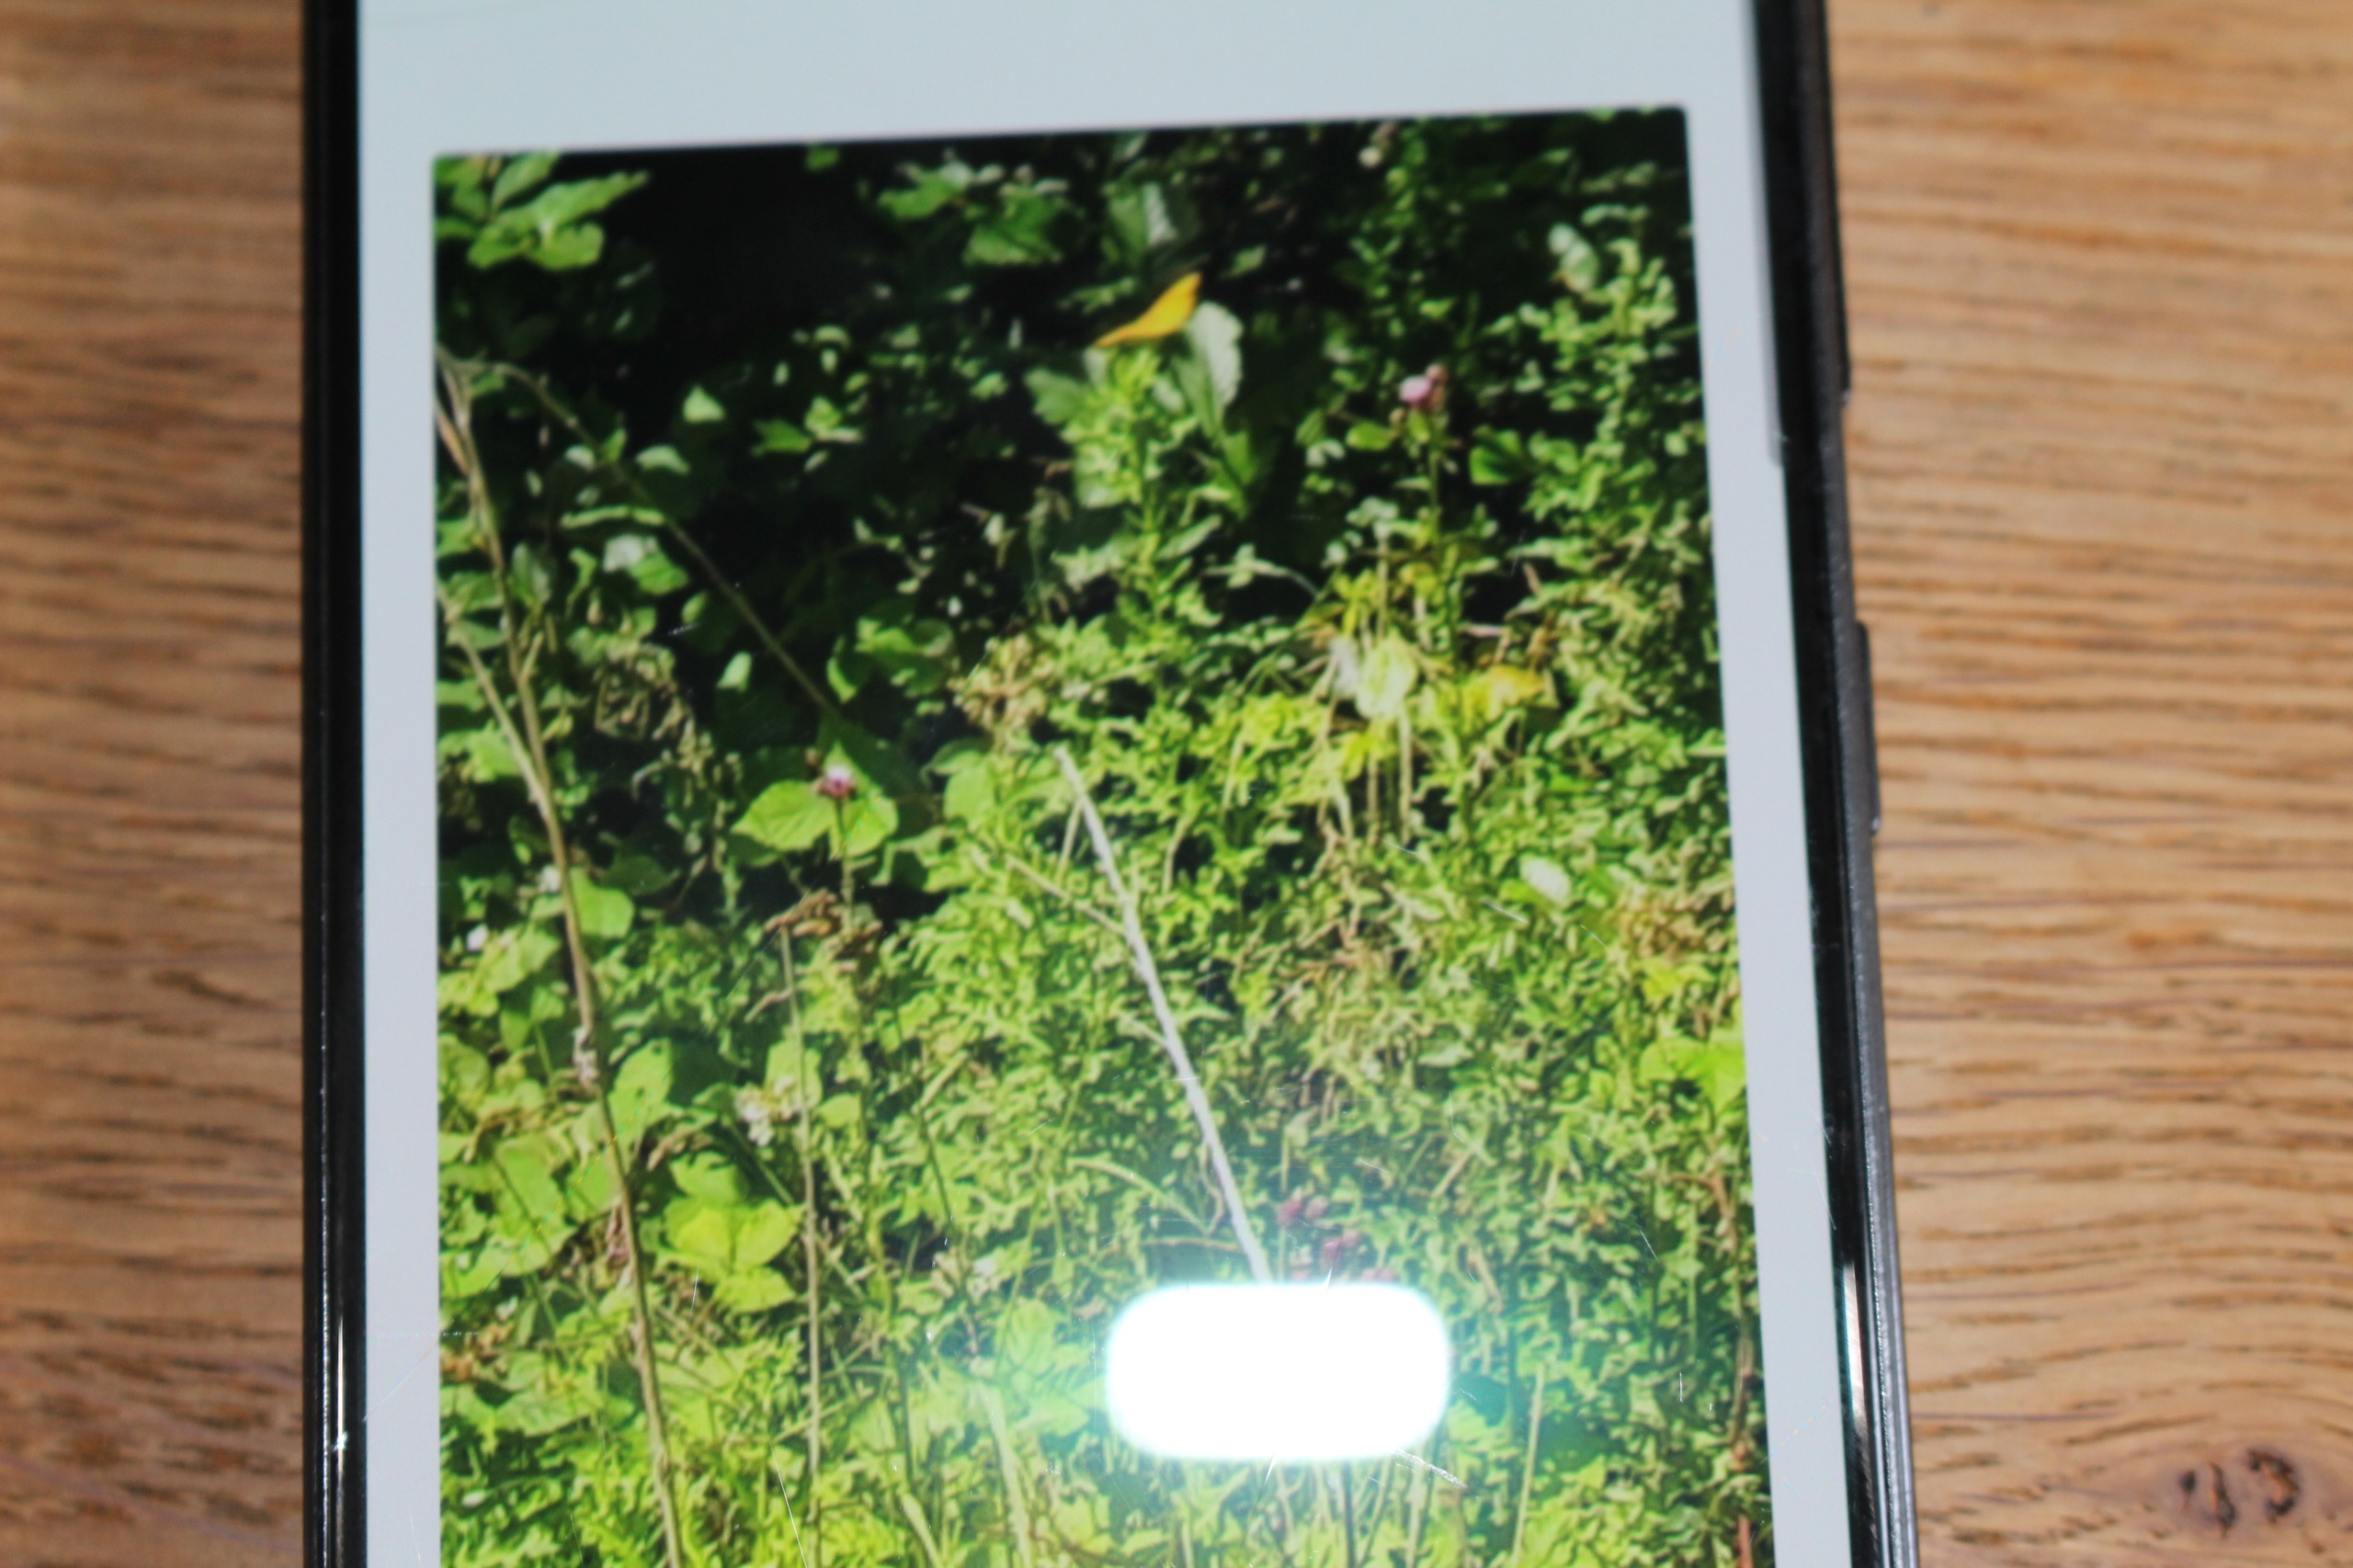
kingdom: Animalia
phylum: Arthropoda
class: Insecta
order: Lepidoptera
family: Nymphalidae
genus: Argynnis
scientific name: Argynnis paphia
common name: Kejserkåbe
